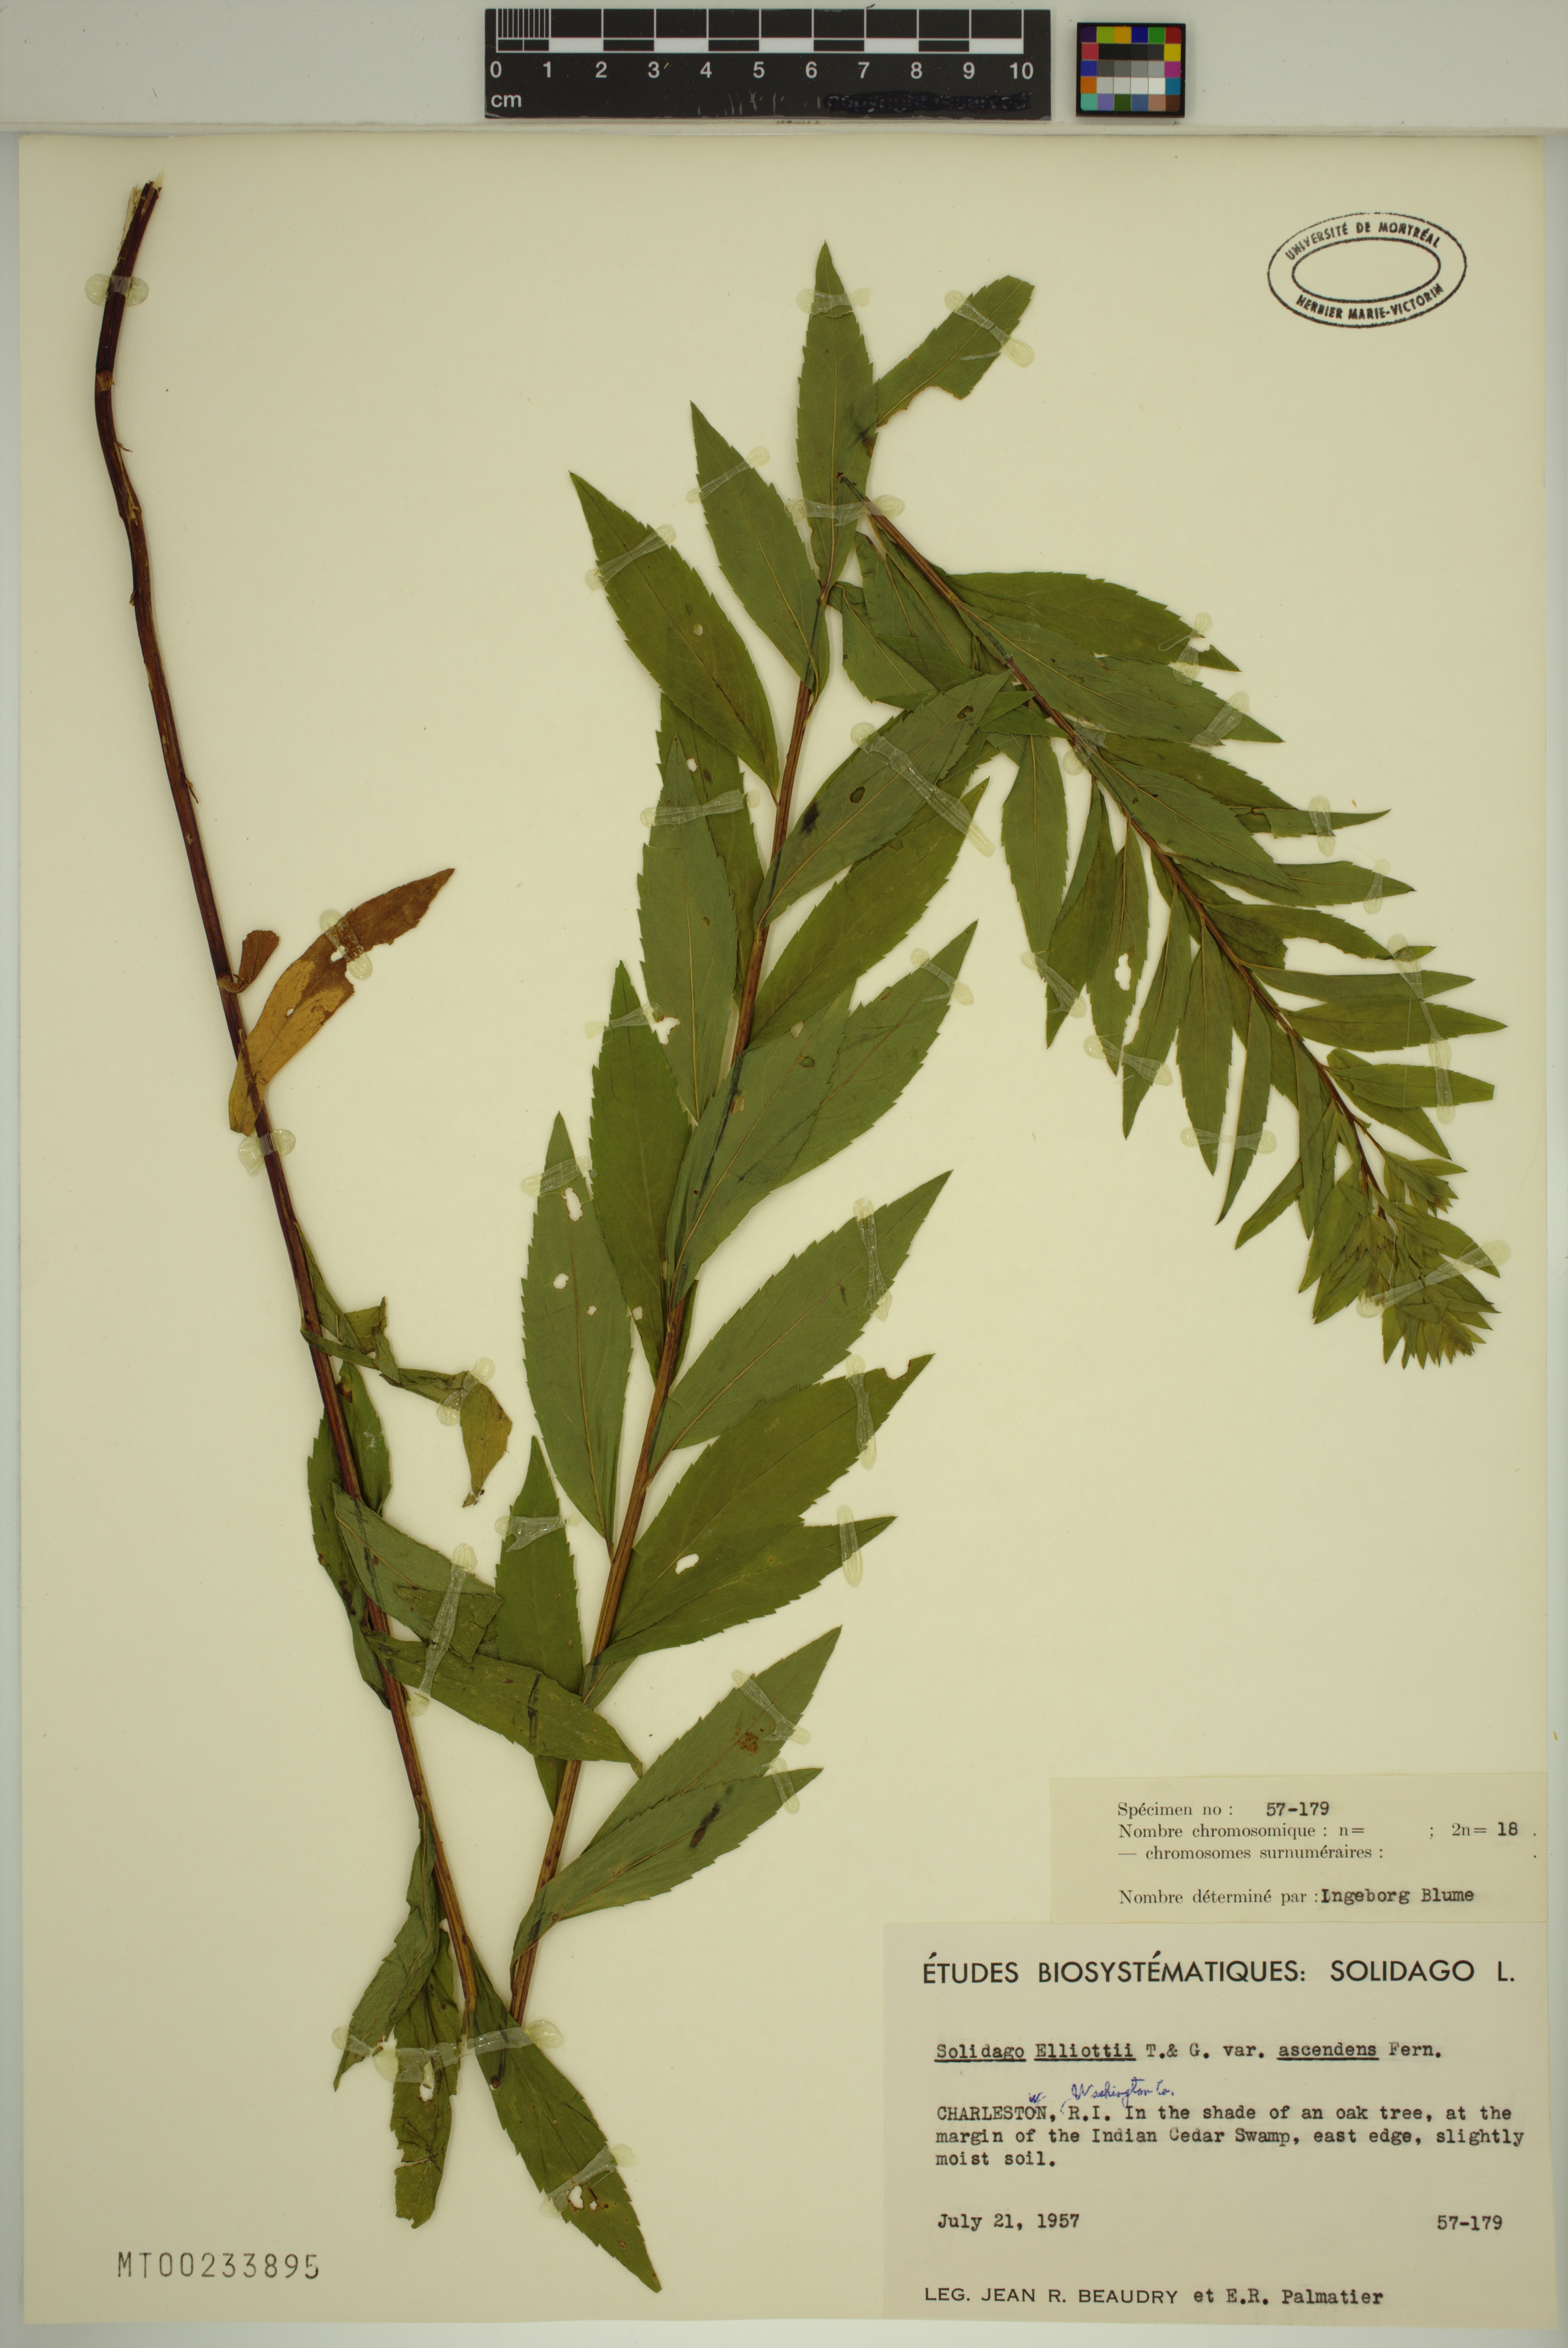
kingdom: Plantae
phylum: Tracheophyta
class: Magnoliopsida
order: Asterales
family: Asteraceae
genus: Solidago
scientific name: Solidago latissimifolia
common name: Elliott's goldenrod
